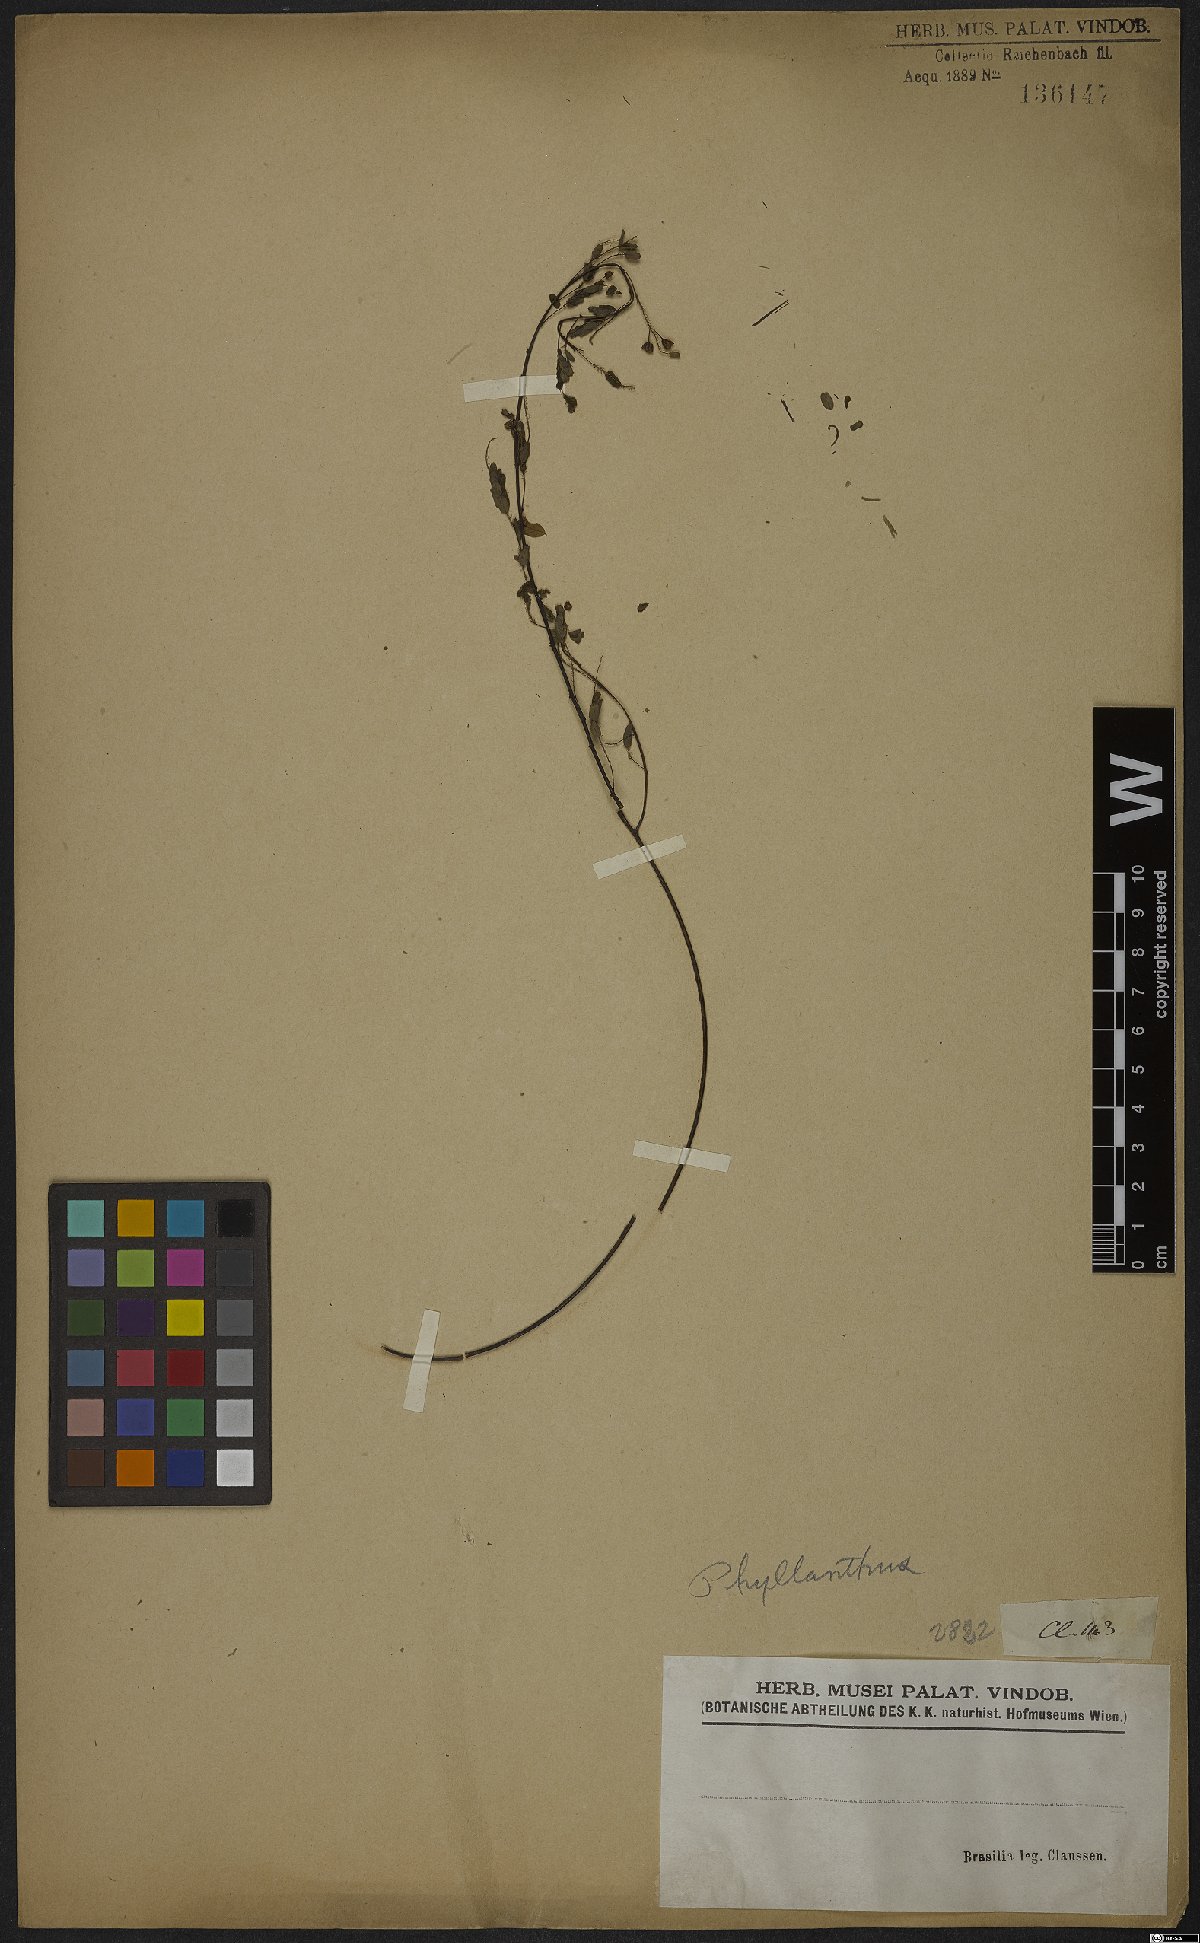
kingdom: Plantae
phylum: Tracheophyta
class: Magnoliopsida
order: Malpighiales
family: Phyllanthaceae
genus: Phyllanthus
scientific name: Phyllanthus
